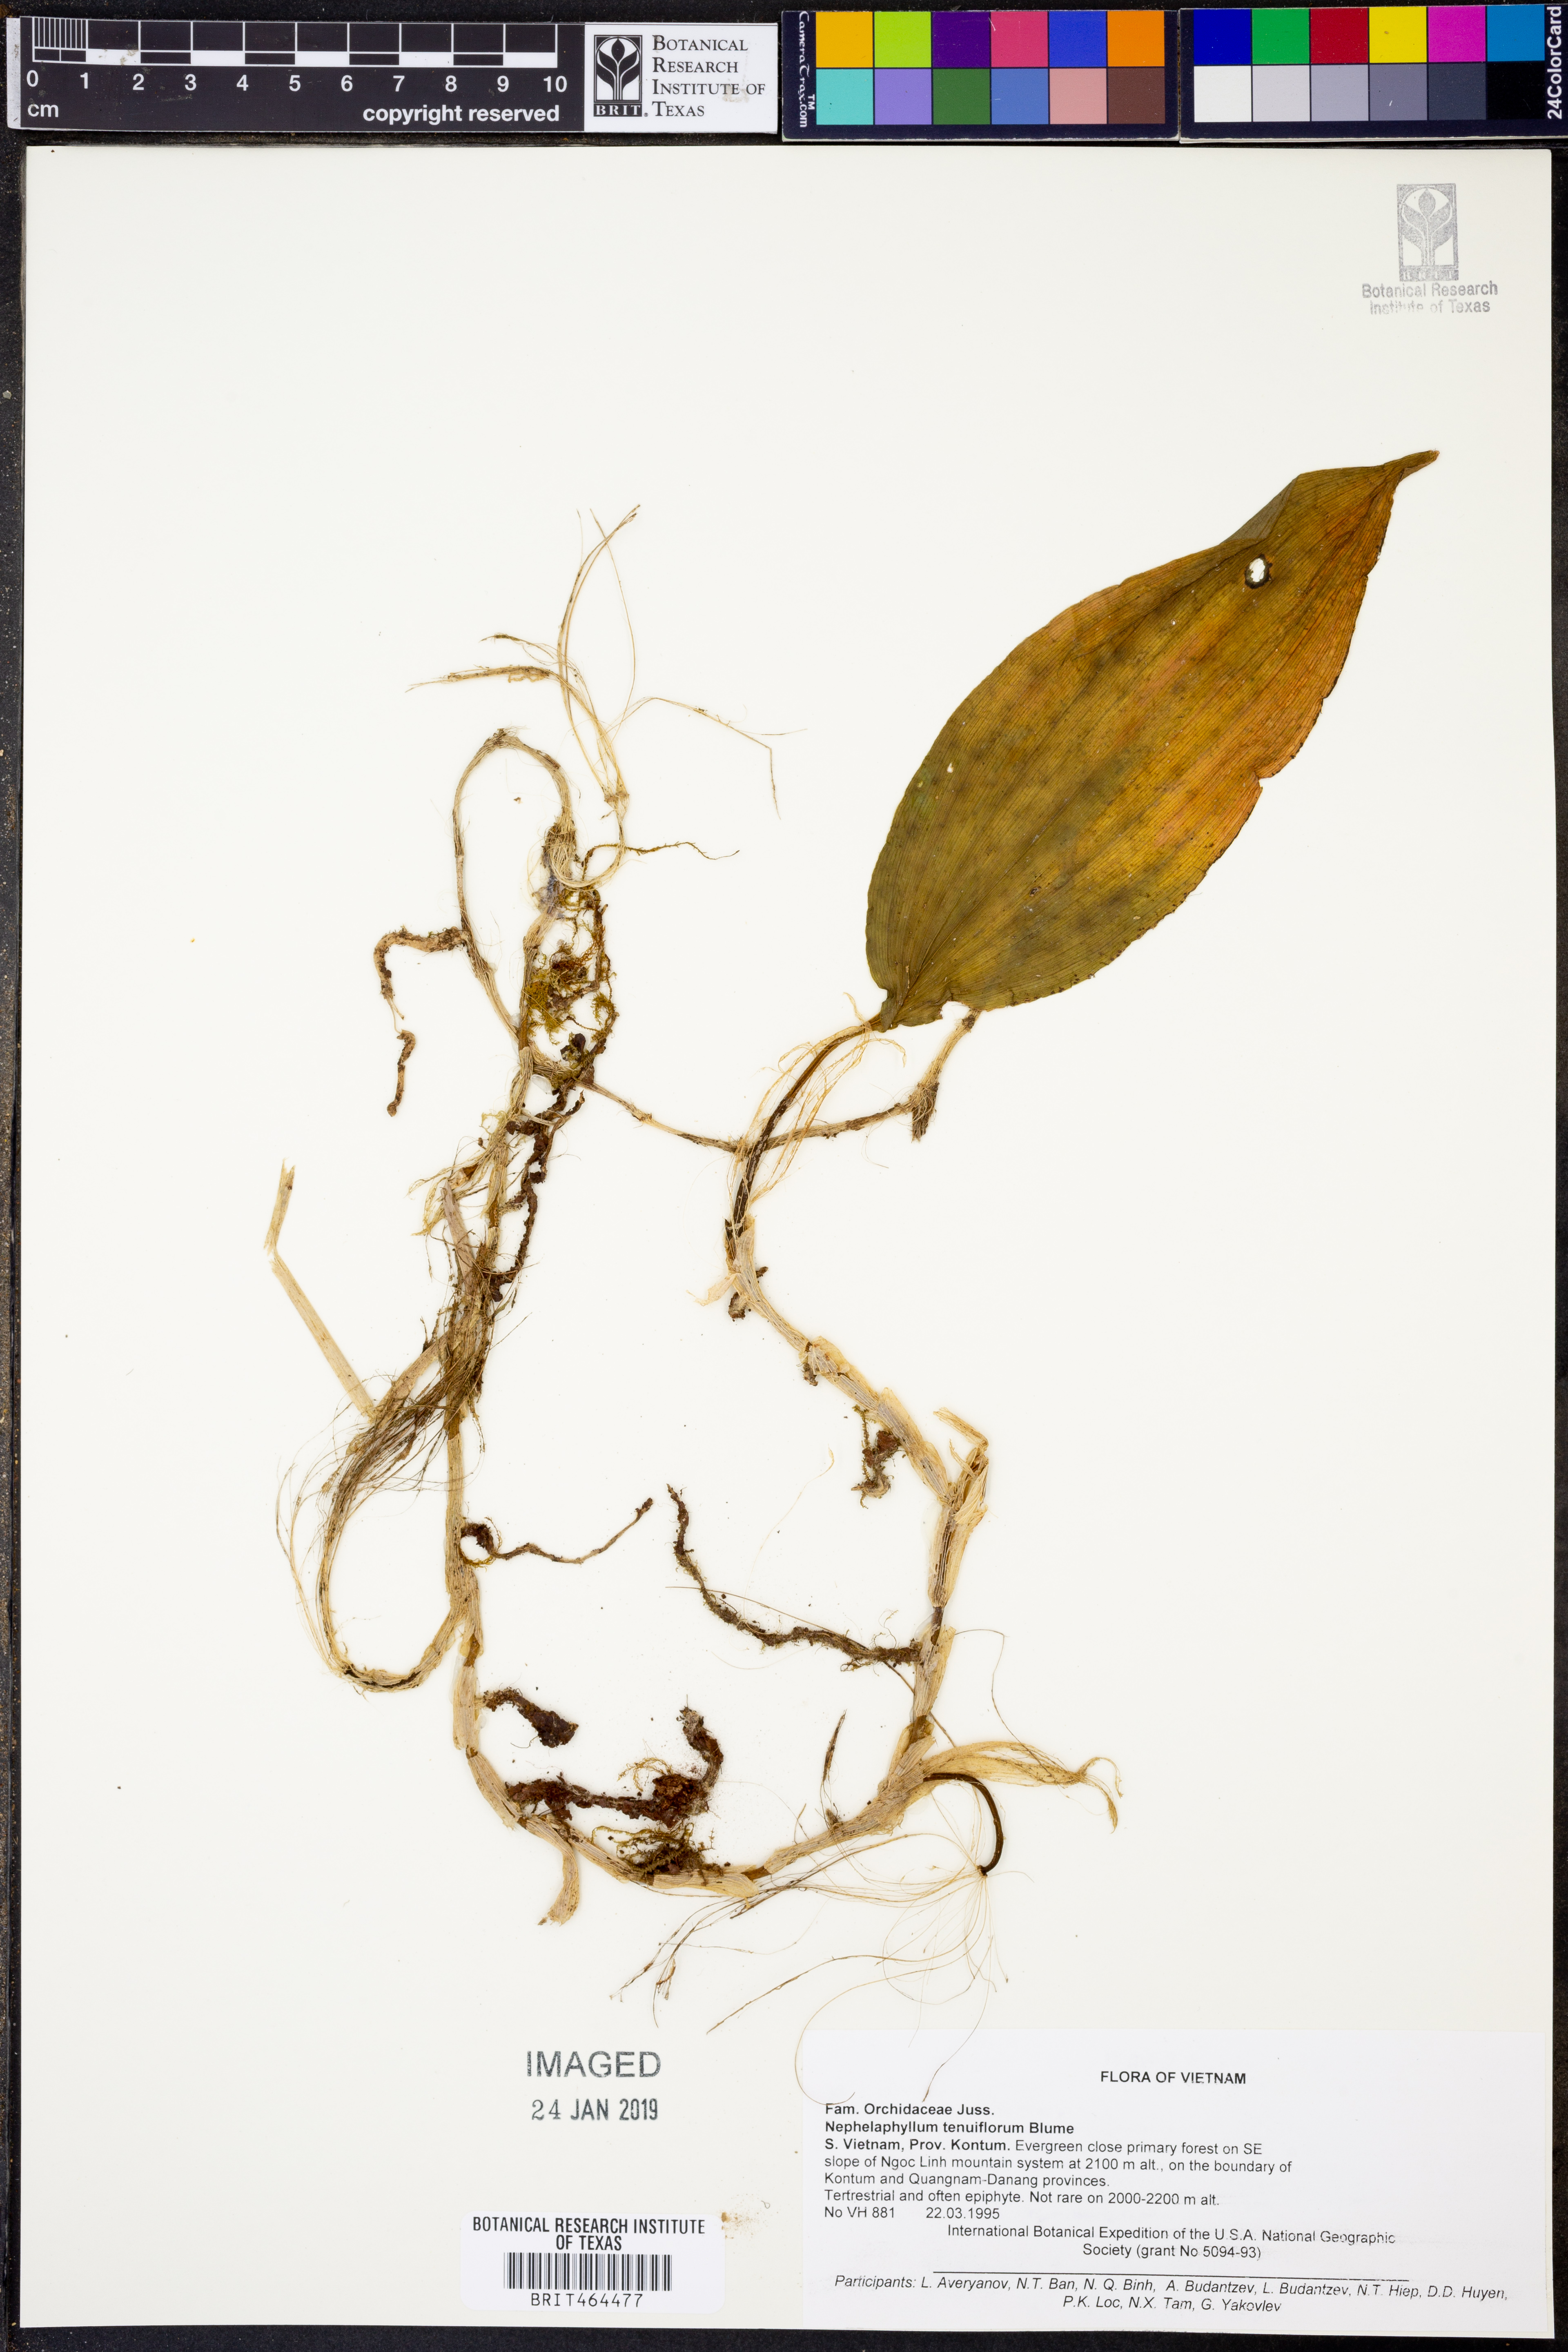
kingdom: Plantae
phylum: Tracheophyta
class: Liliopsida
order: Asparagales
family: Orchidaceae
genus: Nephelaphyllum
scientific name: Nephelaphyllum tenuiflorum
